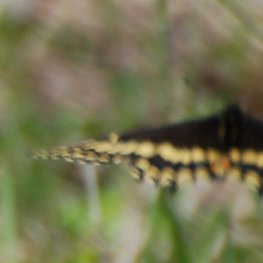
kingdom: Animalia
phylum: Arthropoda
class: Insecta
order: Lepidoptera
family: Papilionidae
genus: Papilio
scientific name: Papilio brevicauda
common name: Short-tailed Swallowtail
